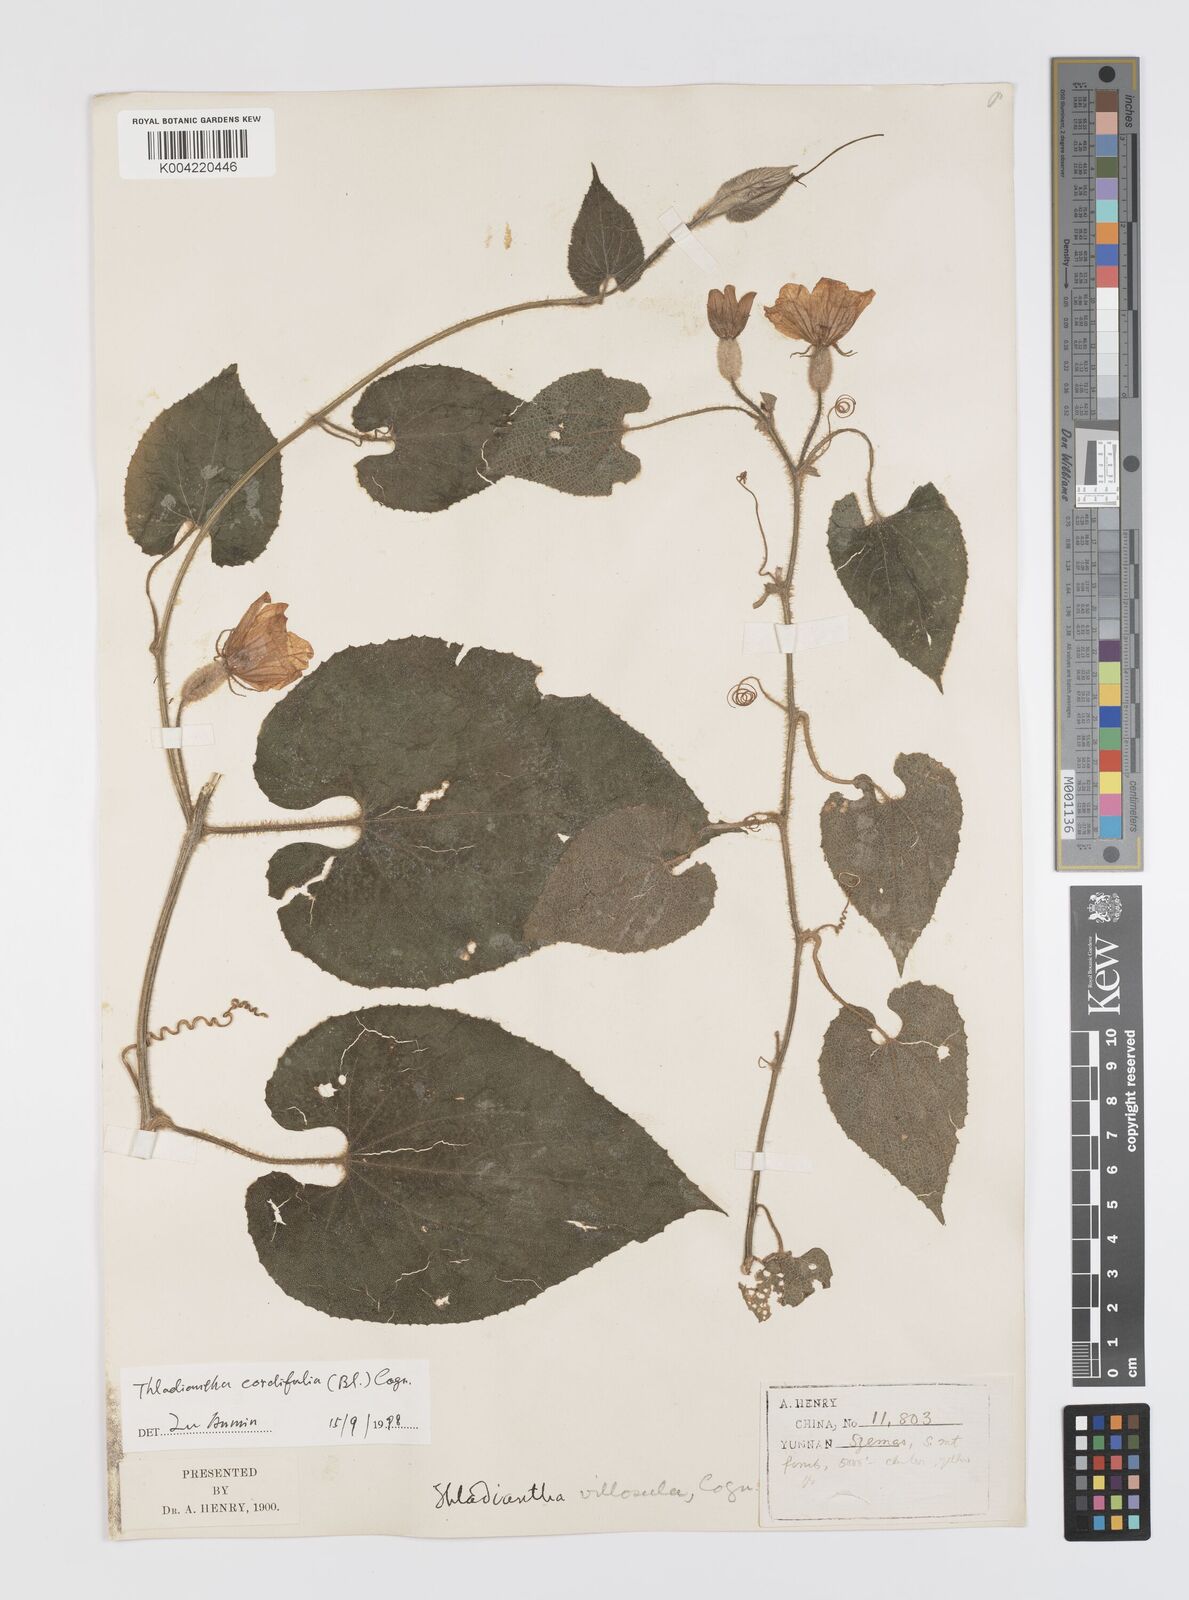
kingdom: Plantae
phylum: Tracheophyta
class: Magnoliopsida
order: Cucurbitales
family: Cucurbitaceae
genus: Thladiantha
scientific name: Thladiantha cordifolia
